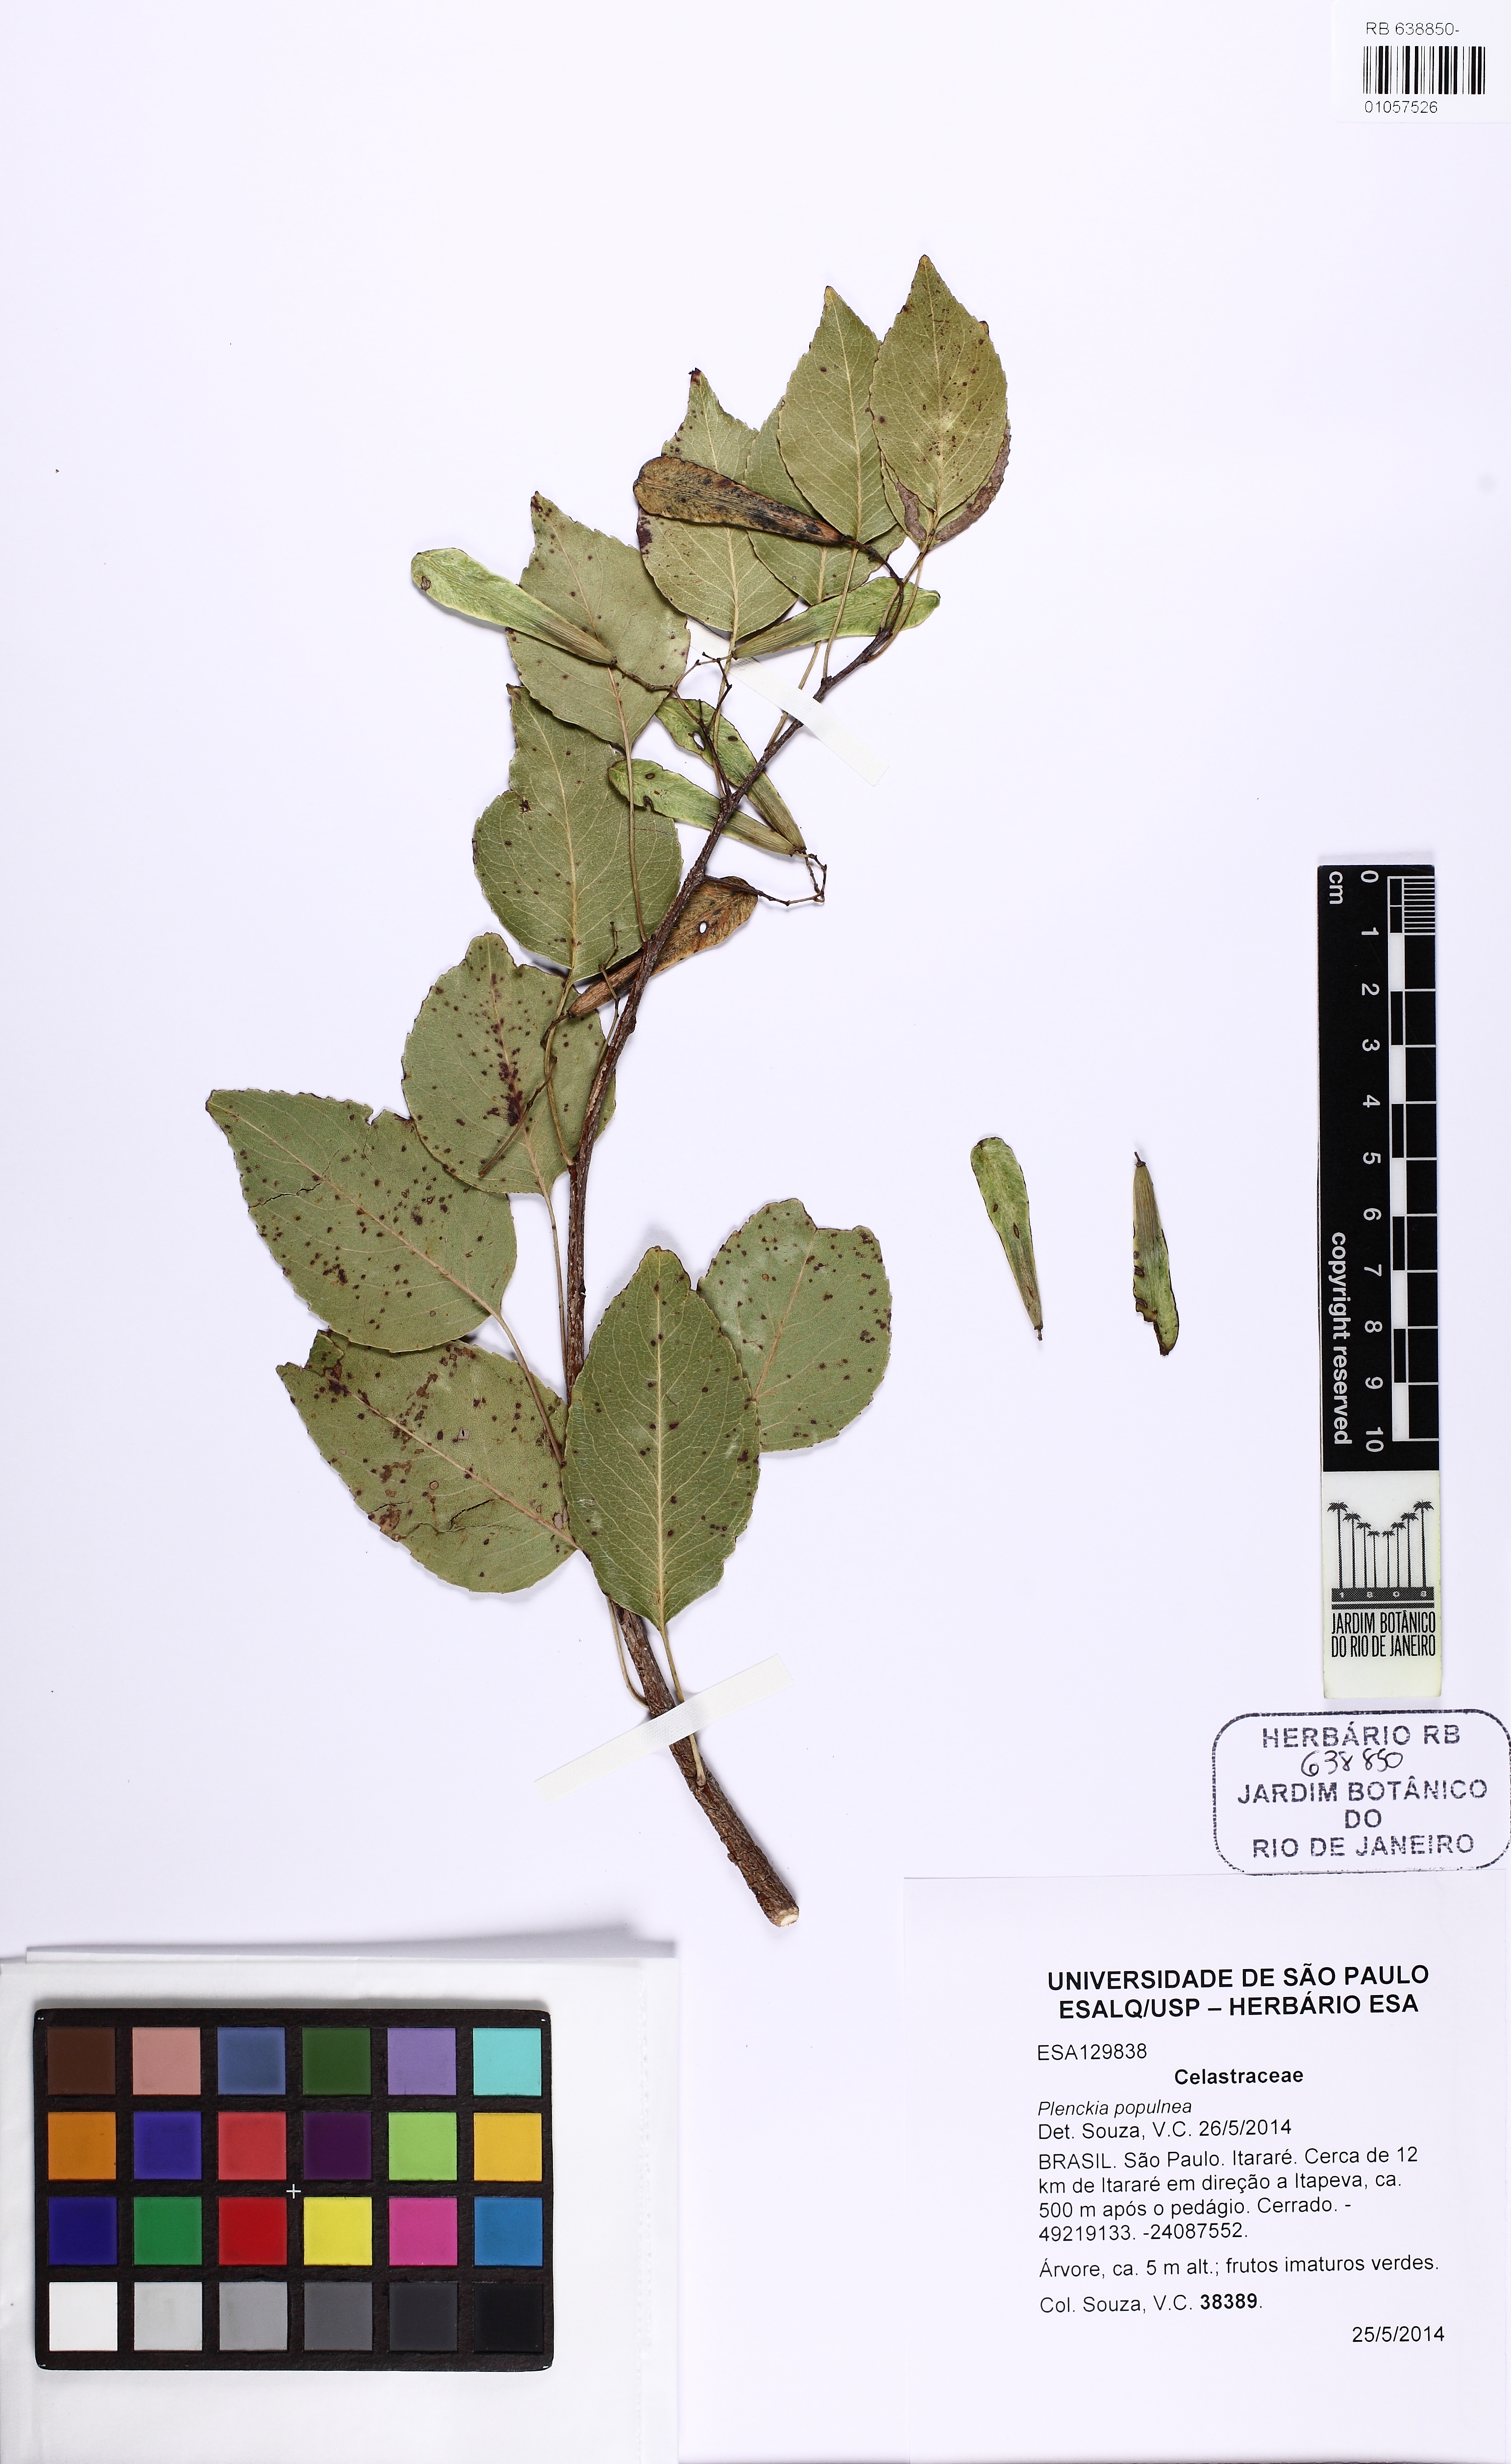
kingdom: Plantae
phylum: Tracheophyta
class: Magnoliopsida
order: Celastrales
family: Celastraceae
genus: Plenckia
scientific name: Plenckia populnea
